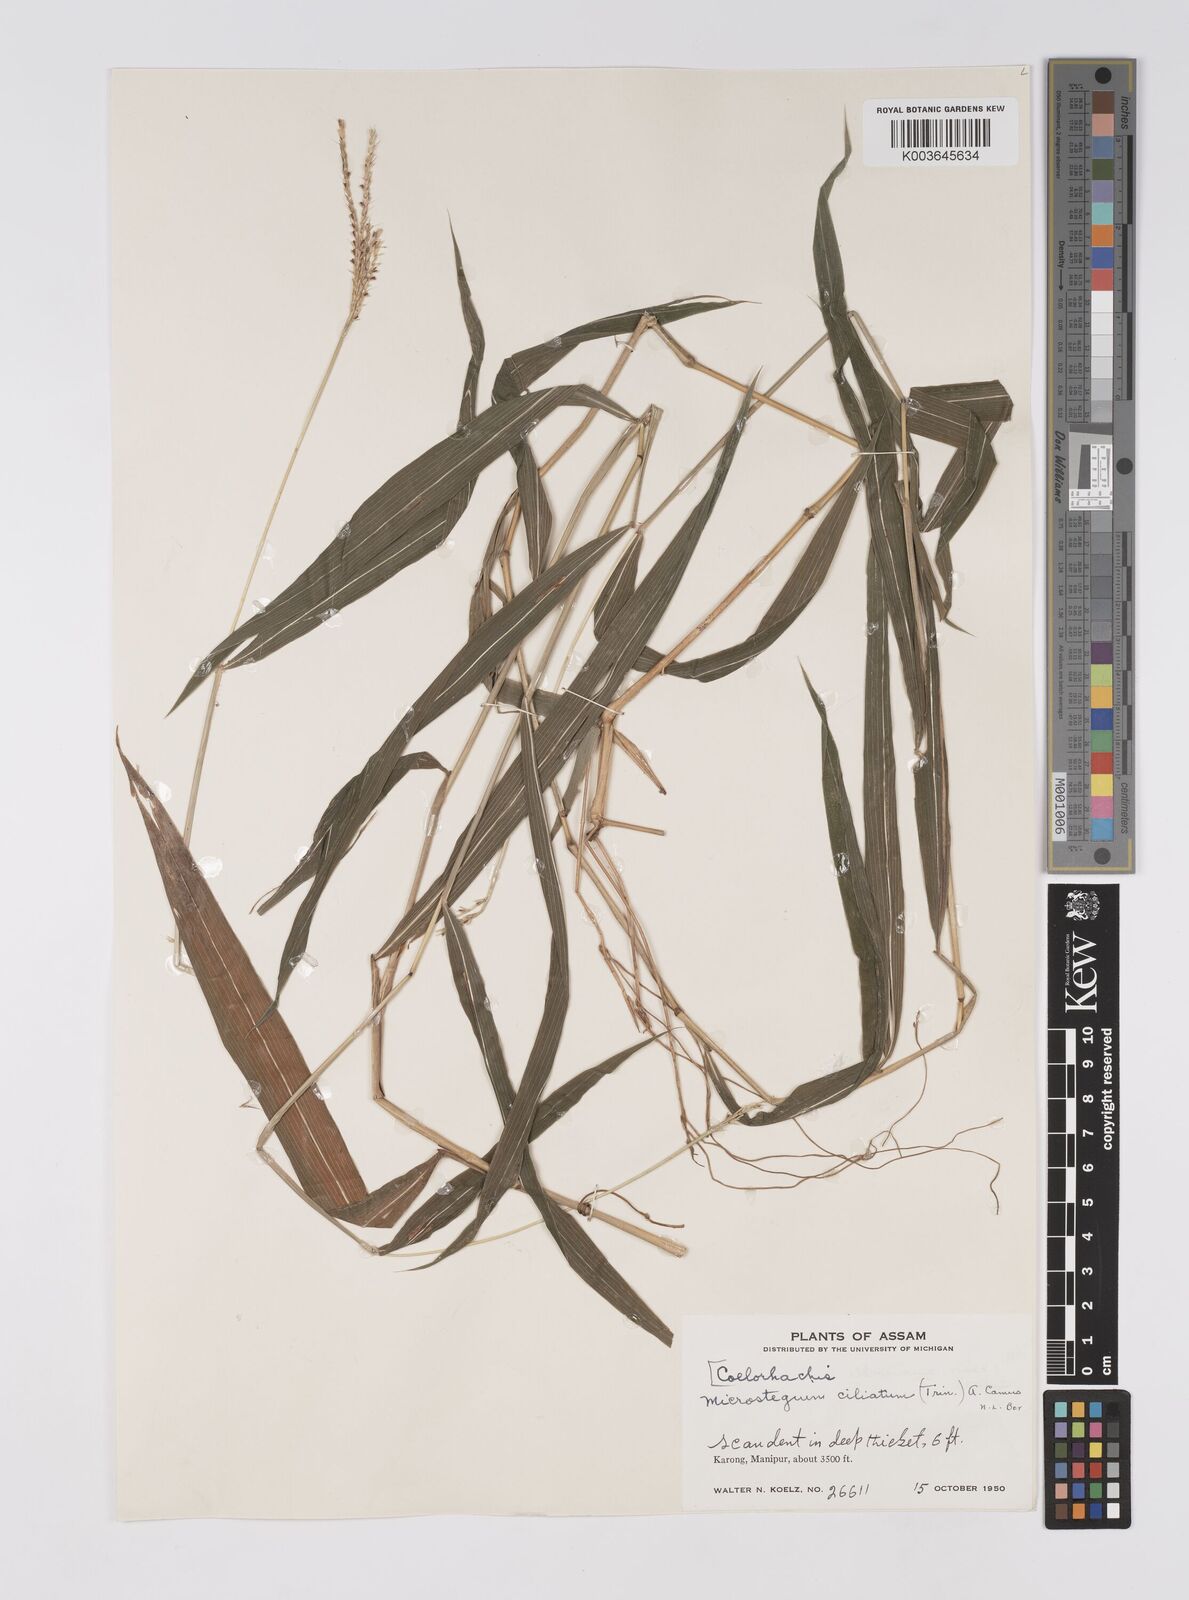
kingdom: Plantae
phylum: Tracheophyta
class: Liliopsida
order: Poales
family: Poaceae
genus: Microstegium
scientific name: Microstegium fasciculatum
